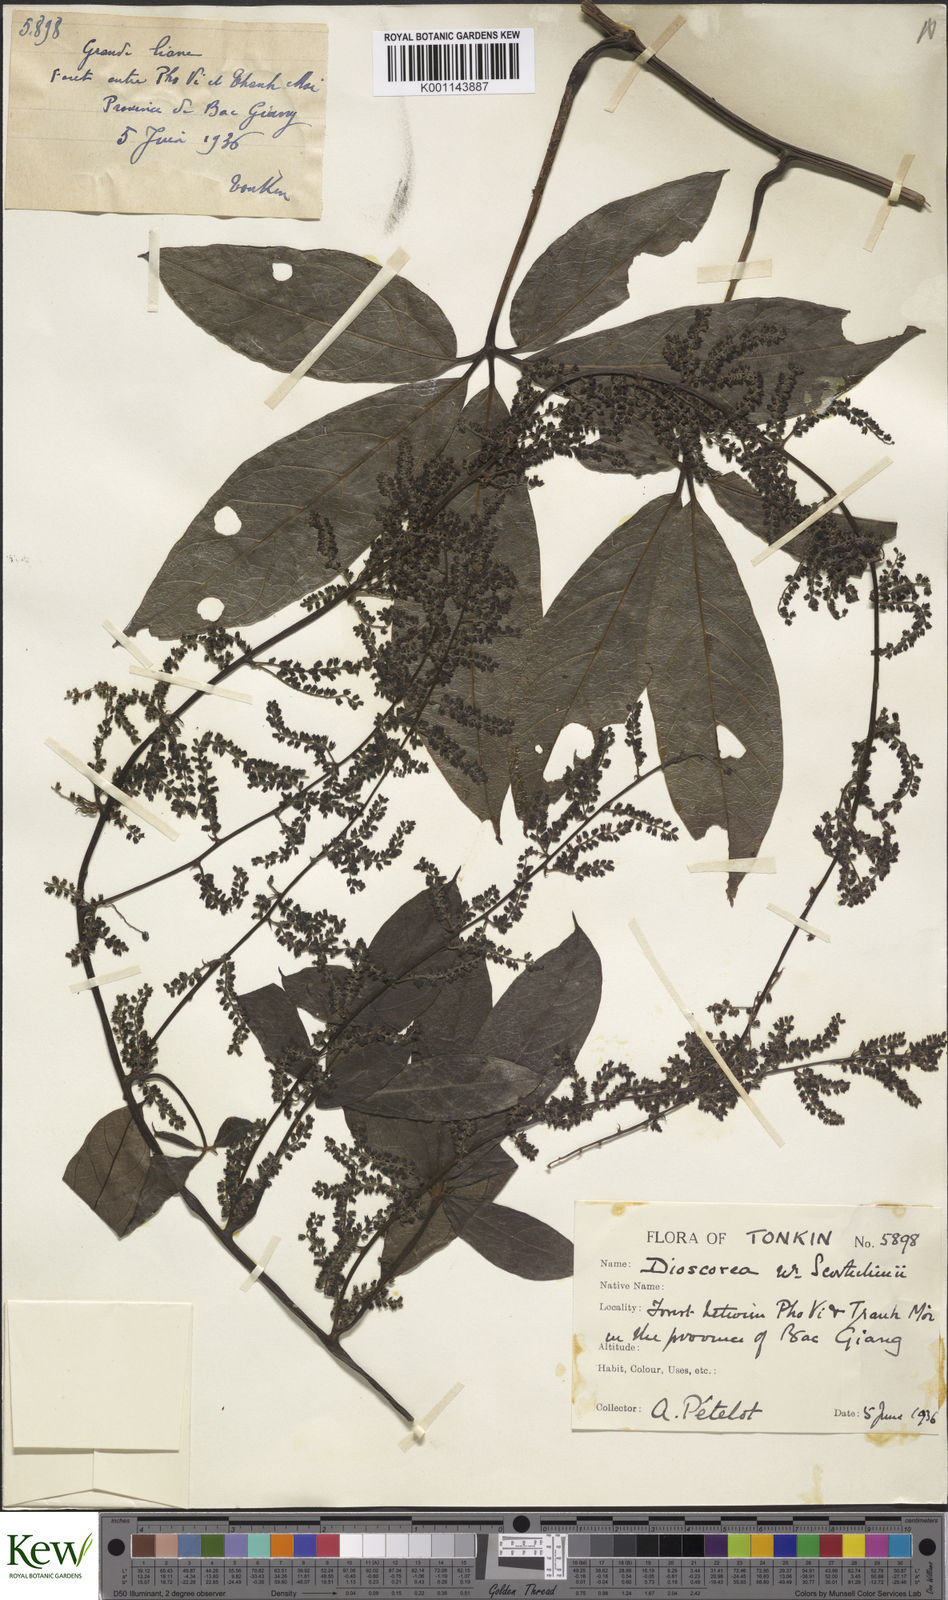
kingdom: Plantae
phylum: Tracheophyta
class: Liliopsida
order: Dioscoreales
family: Dioscoreaceae
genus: Dioscorea
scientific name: Dioscorea scortechinii
